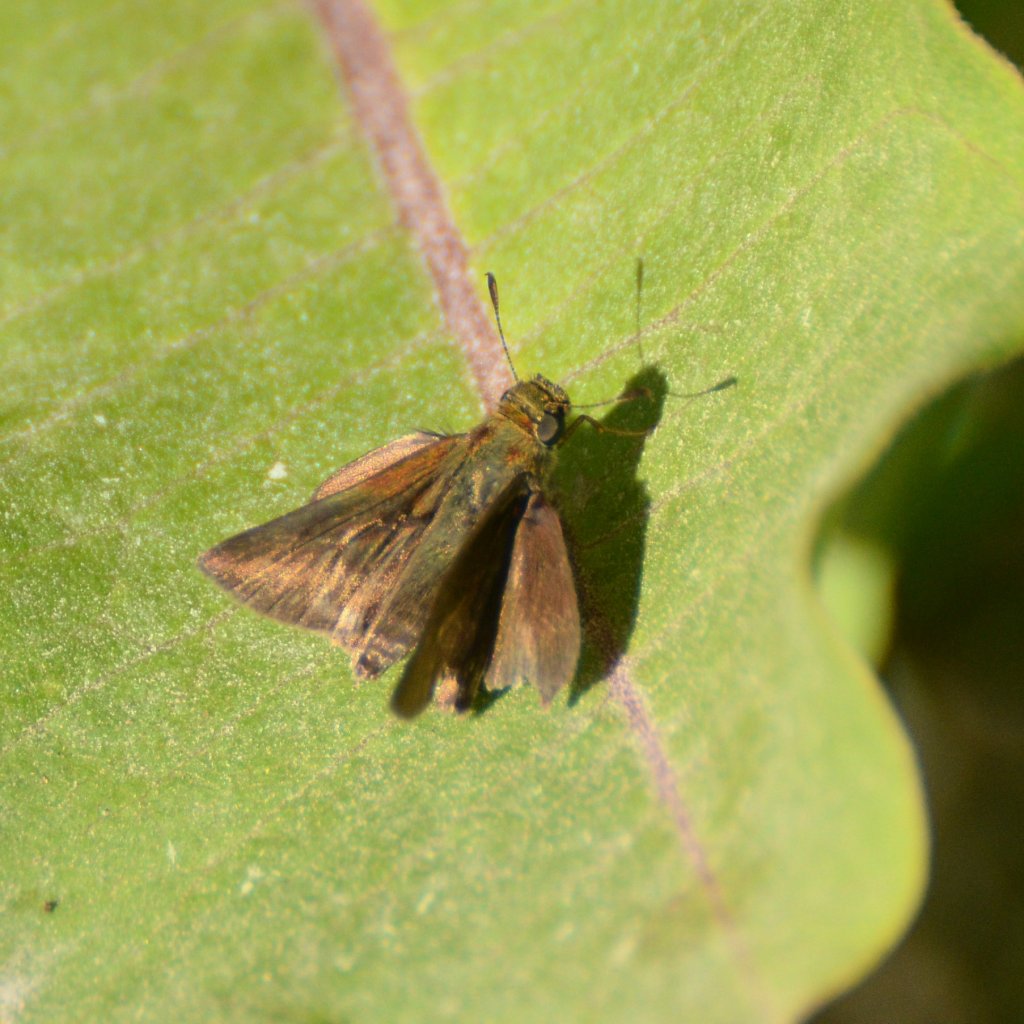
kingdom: Animalia
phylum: Arthropoda
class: Insecta
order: Lepidoptera
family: Hesperiidae
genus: Euphyes
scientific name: Euphyes vestris
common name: Dun Skipper
